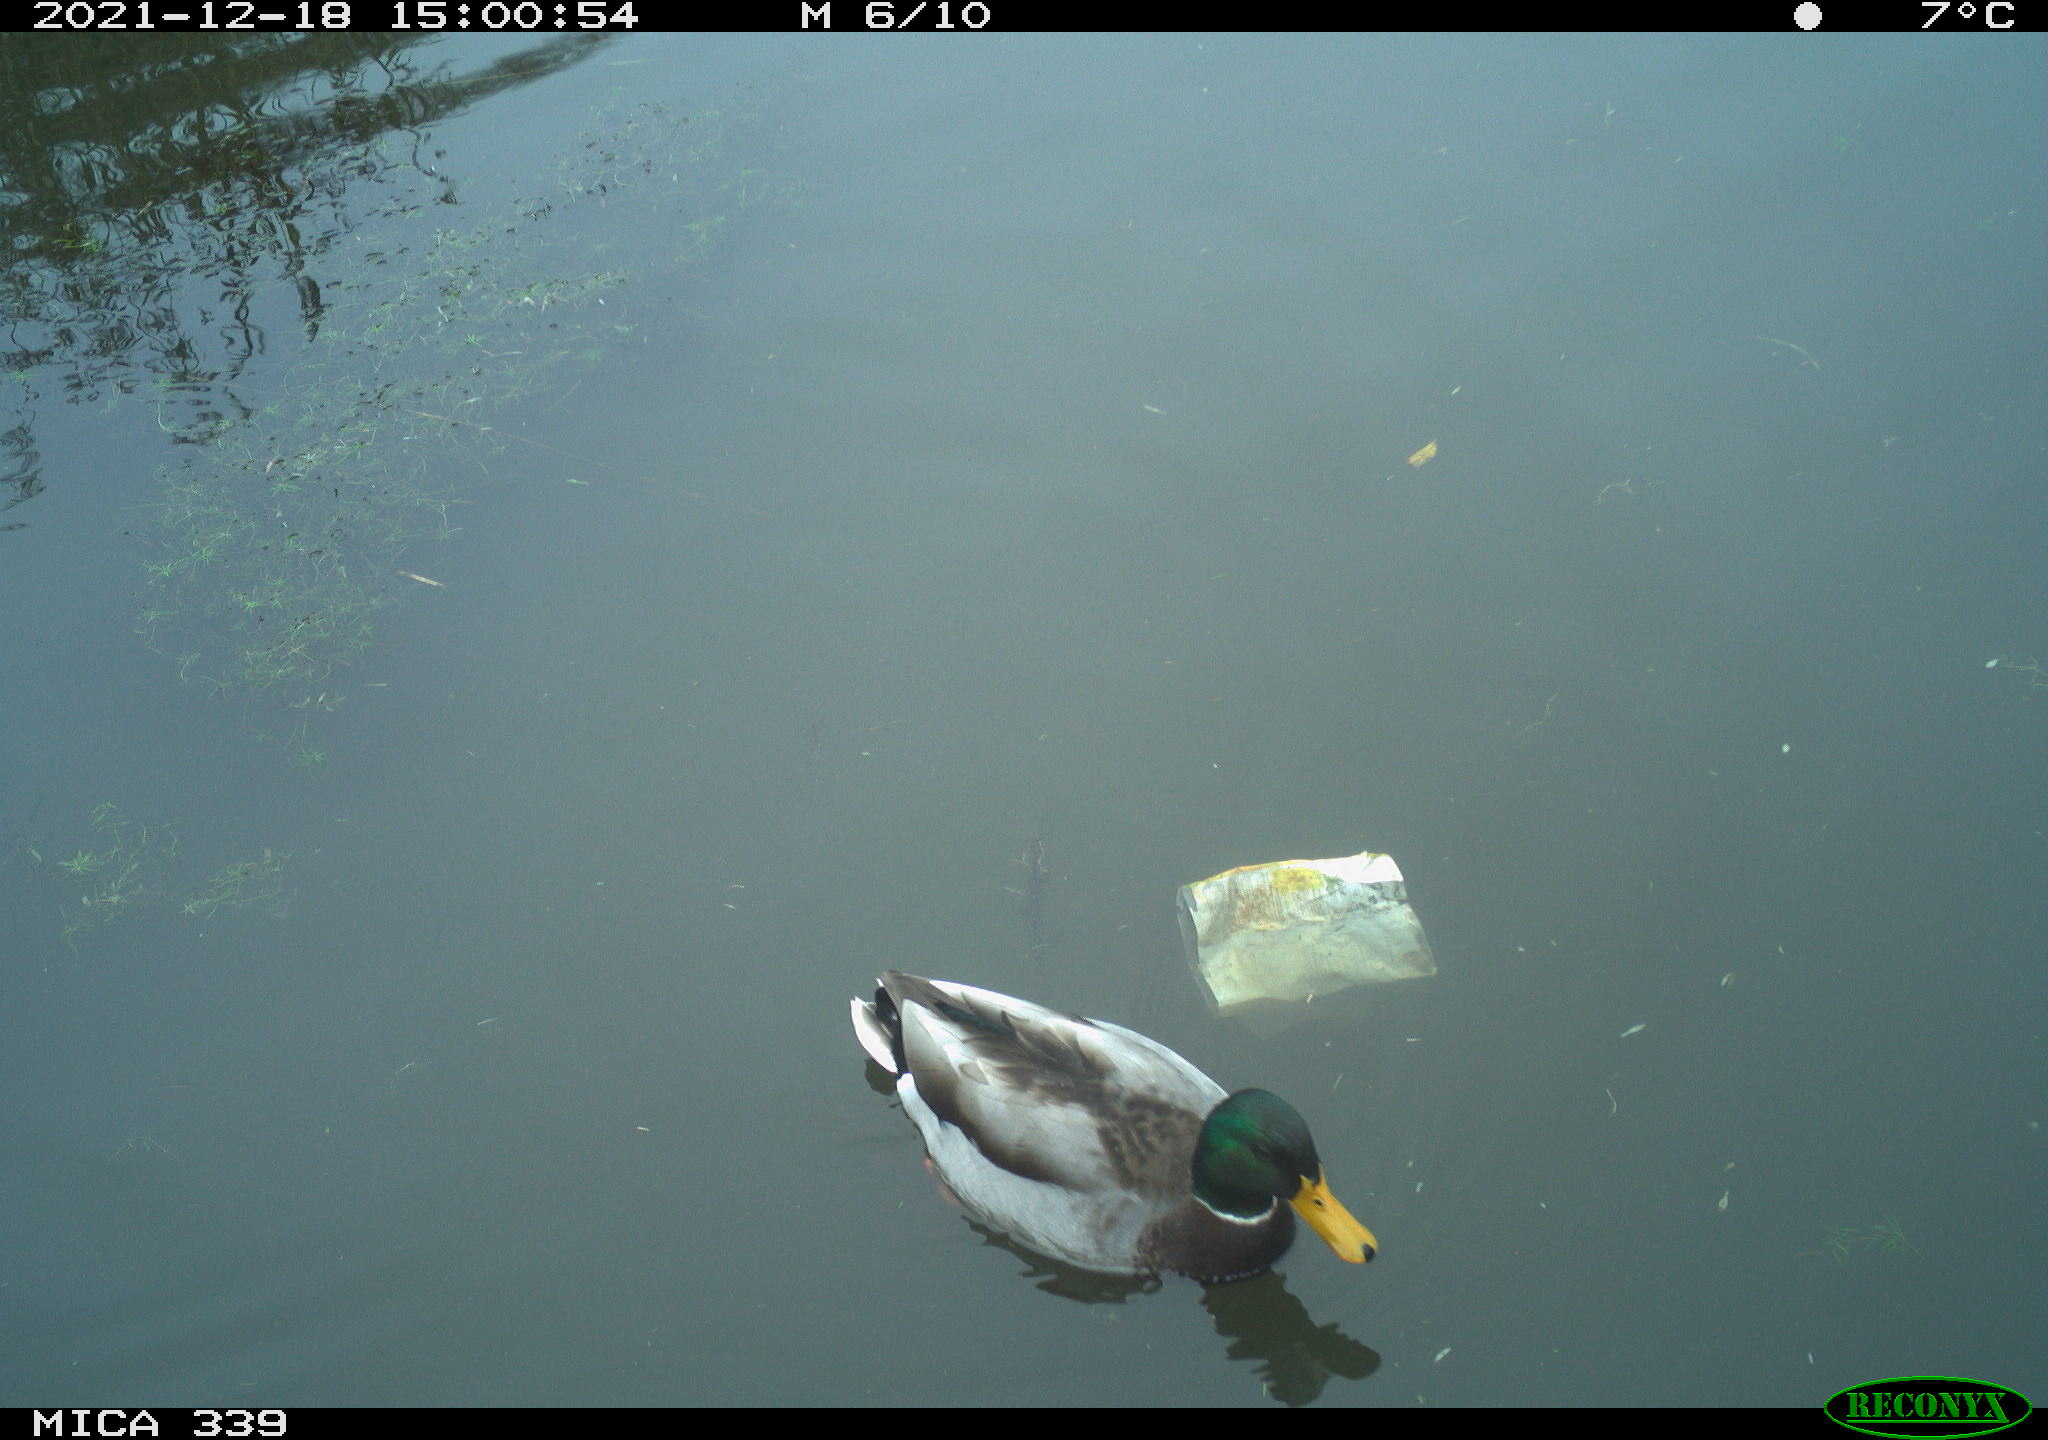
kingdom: Animalia
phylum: Chordata
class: Aves
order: Anseriformes
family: Anatidae
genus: Anas
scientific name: Anas platyrhynchos
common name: Mallard
